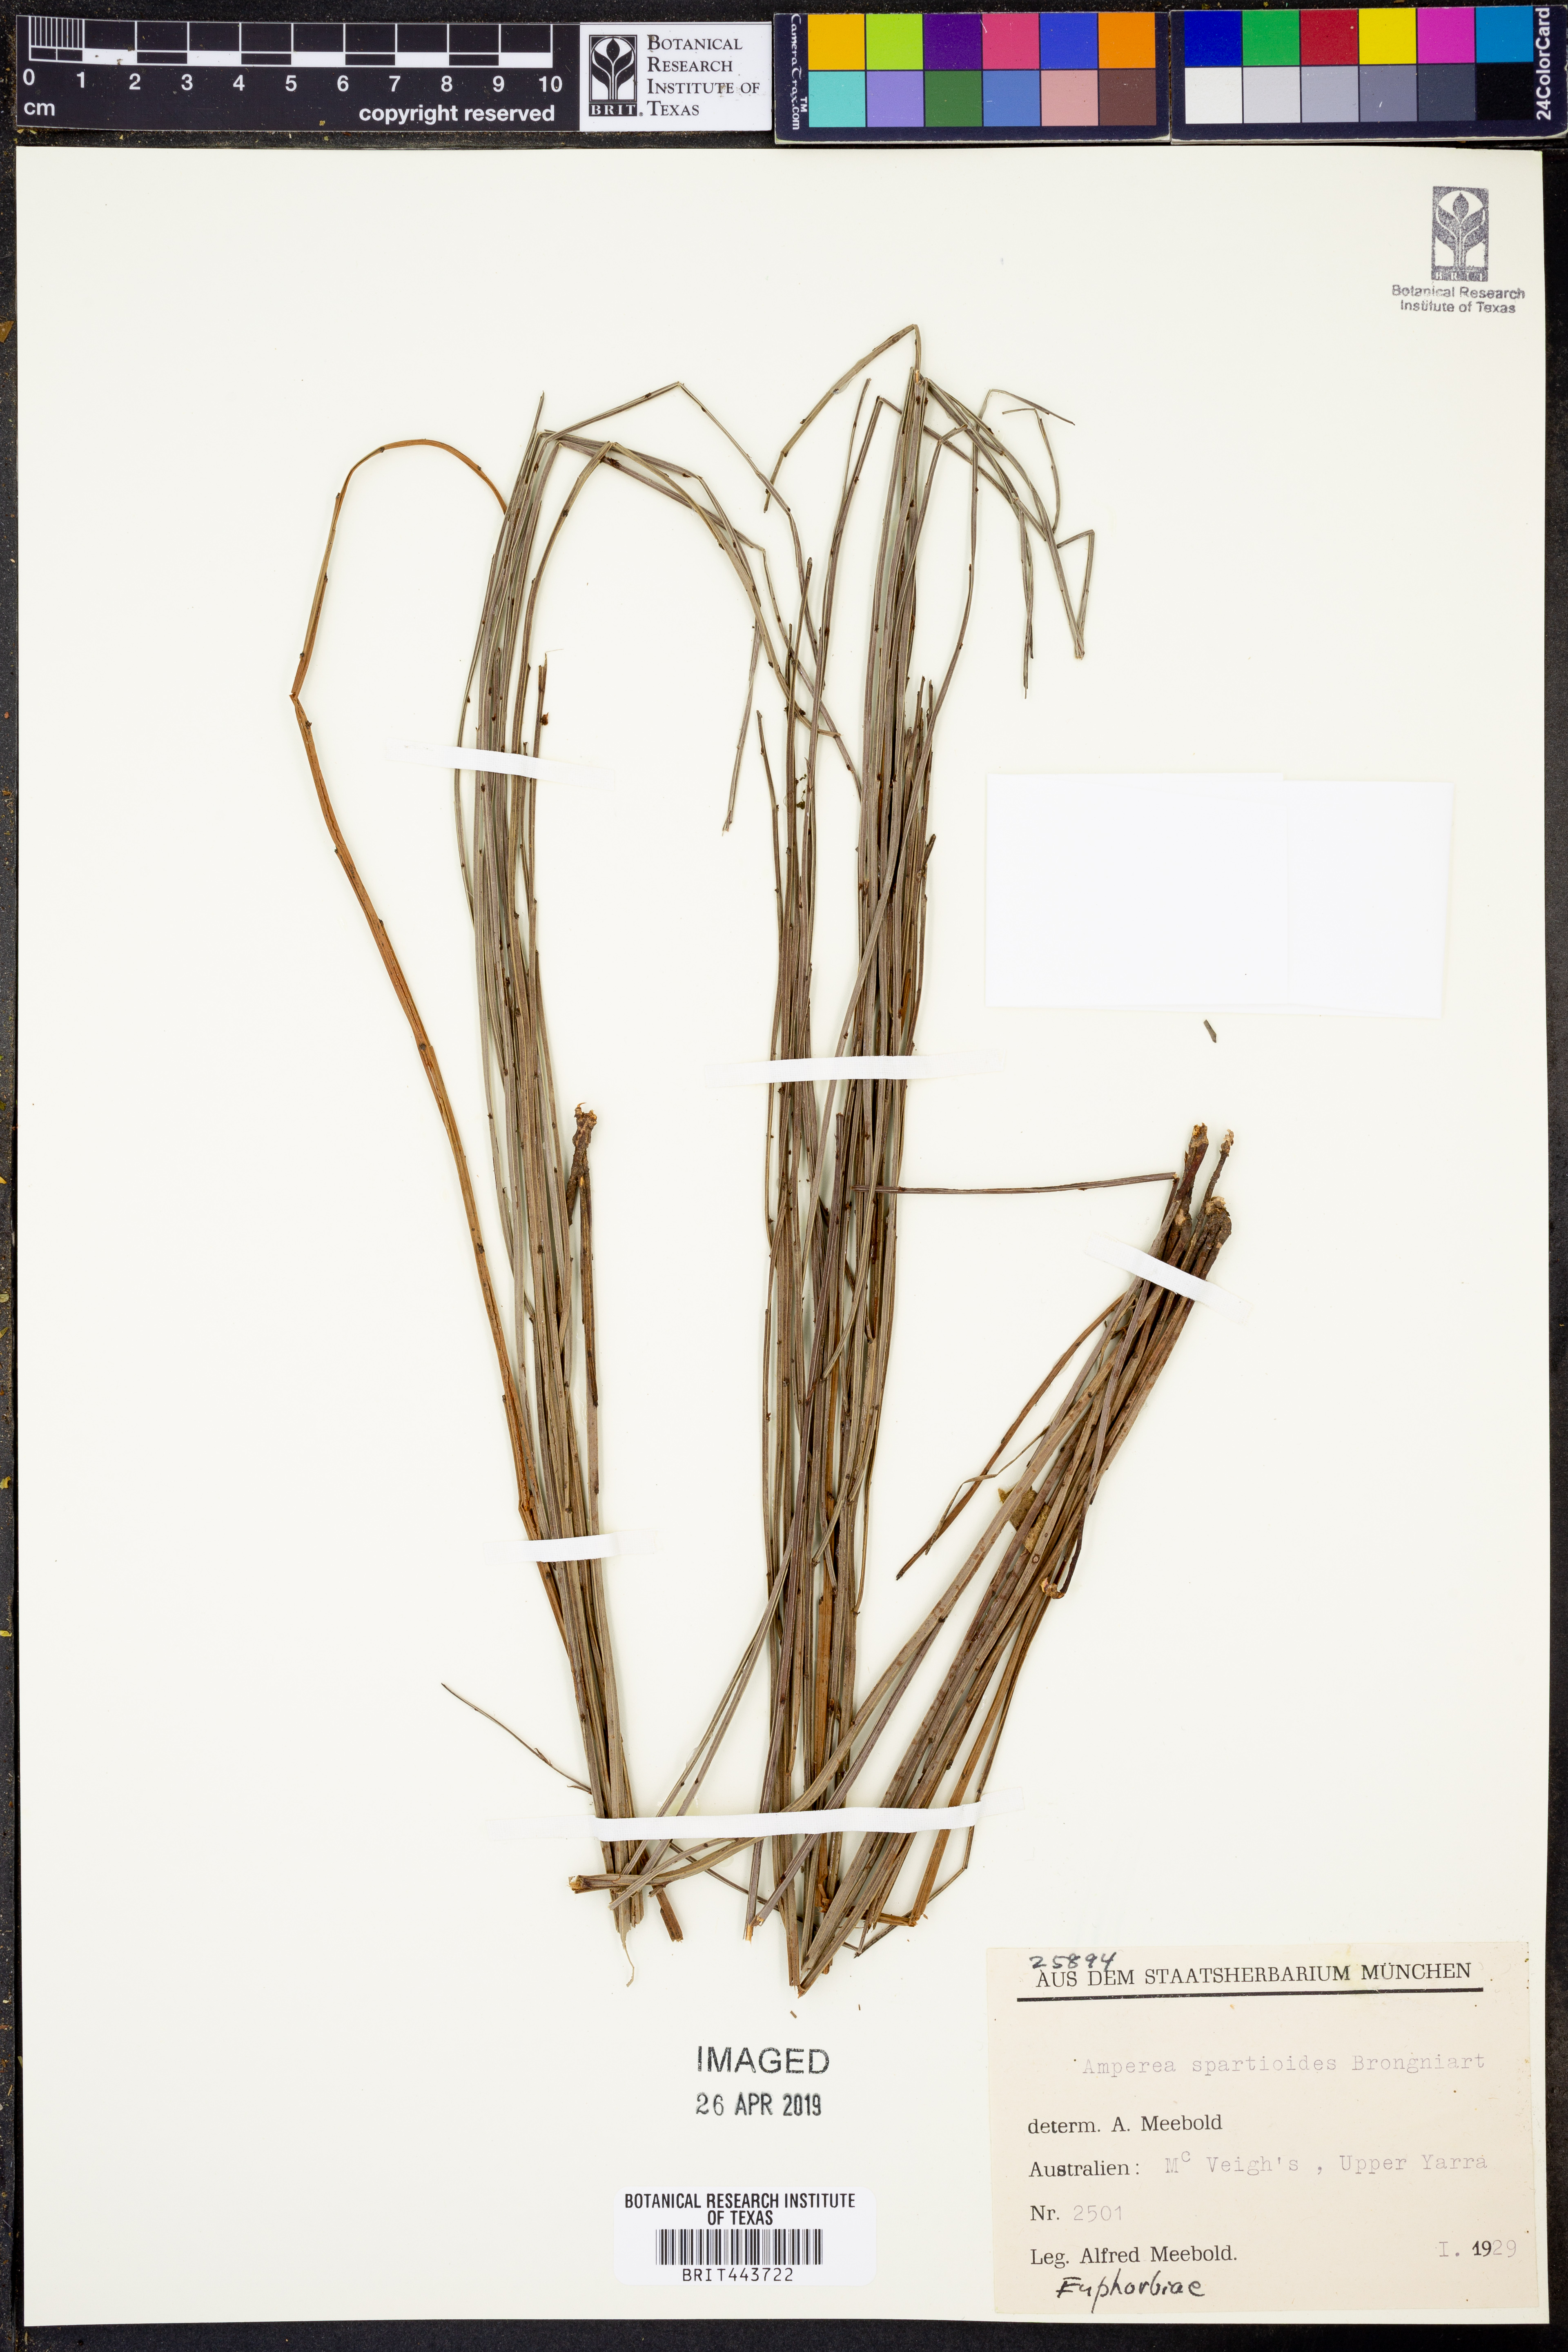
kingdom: Plantae
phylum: Tracheophyta
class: Magnoliopsida
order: Malpighiales
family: Euphorbiaceae
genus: Amperea
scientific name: Amperea xiphoclada
